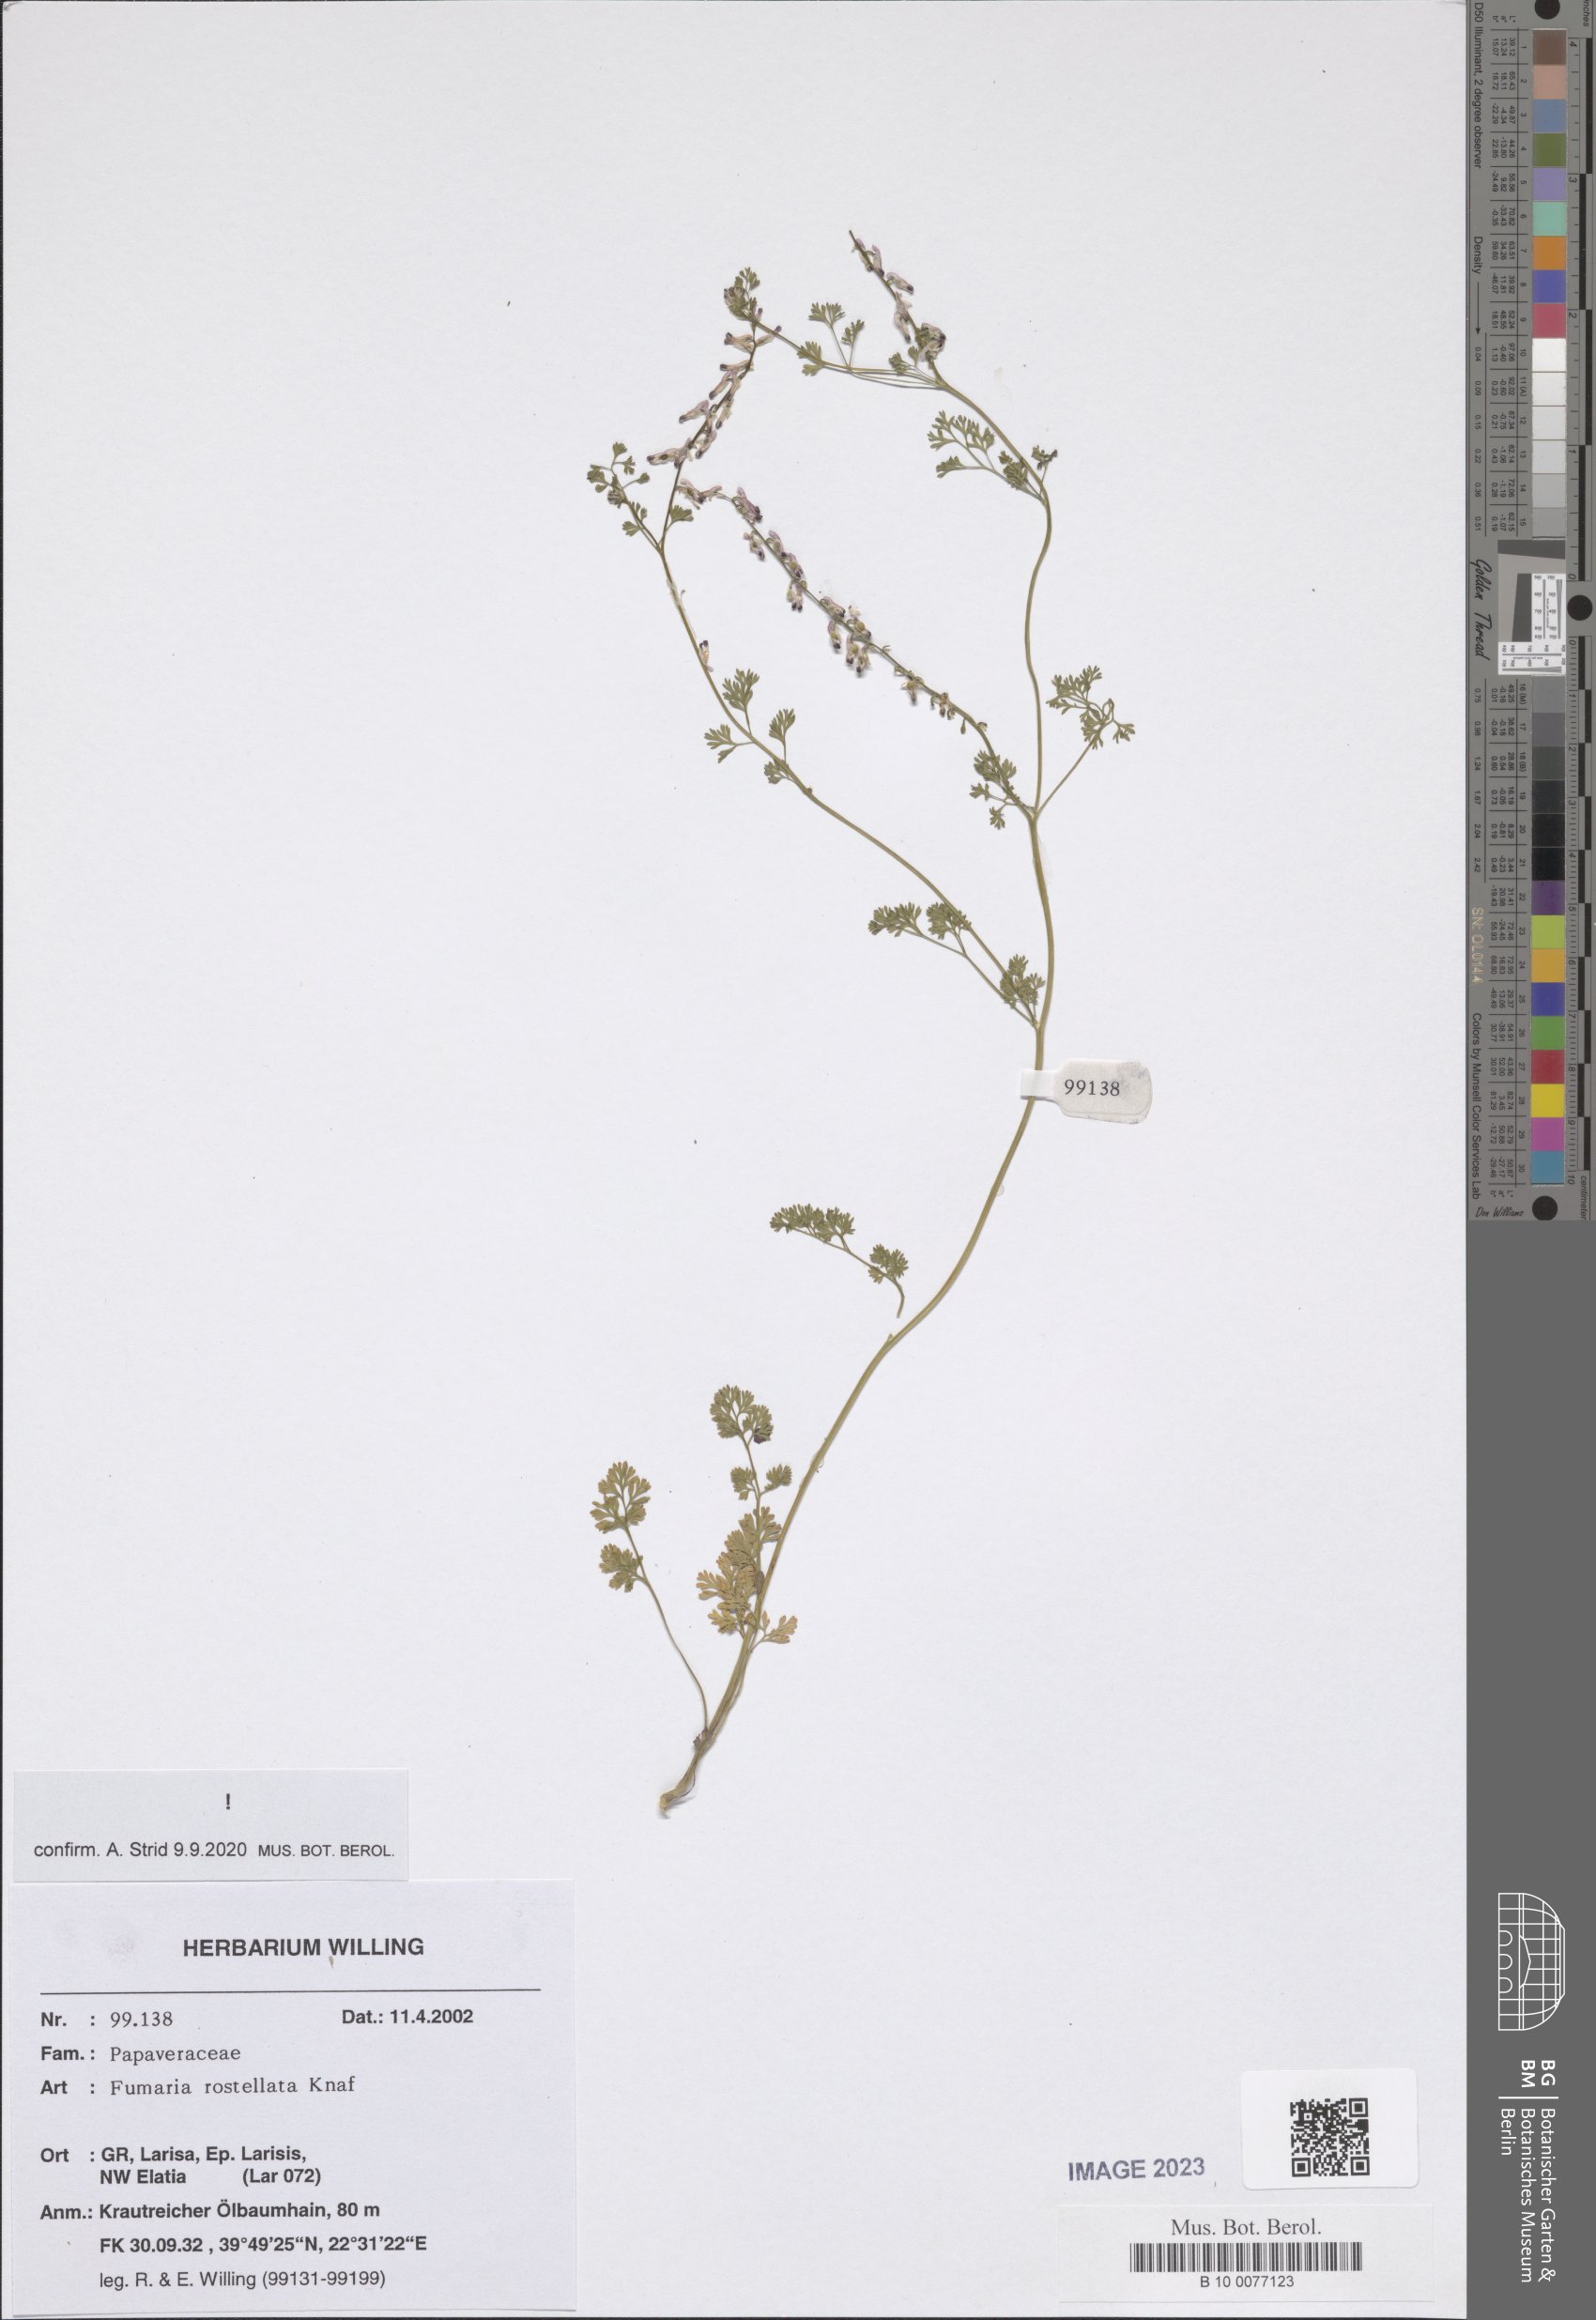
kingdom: Plantae
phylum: Tracheophyta
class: Magnoliopsida
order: Ranunculales
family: Papaveraceae
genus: Fumaria
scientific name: Fumaria rostellata
